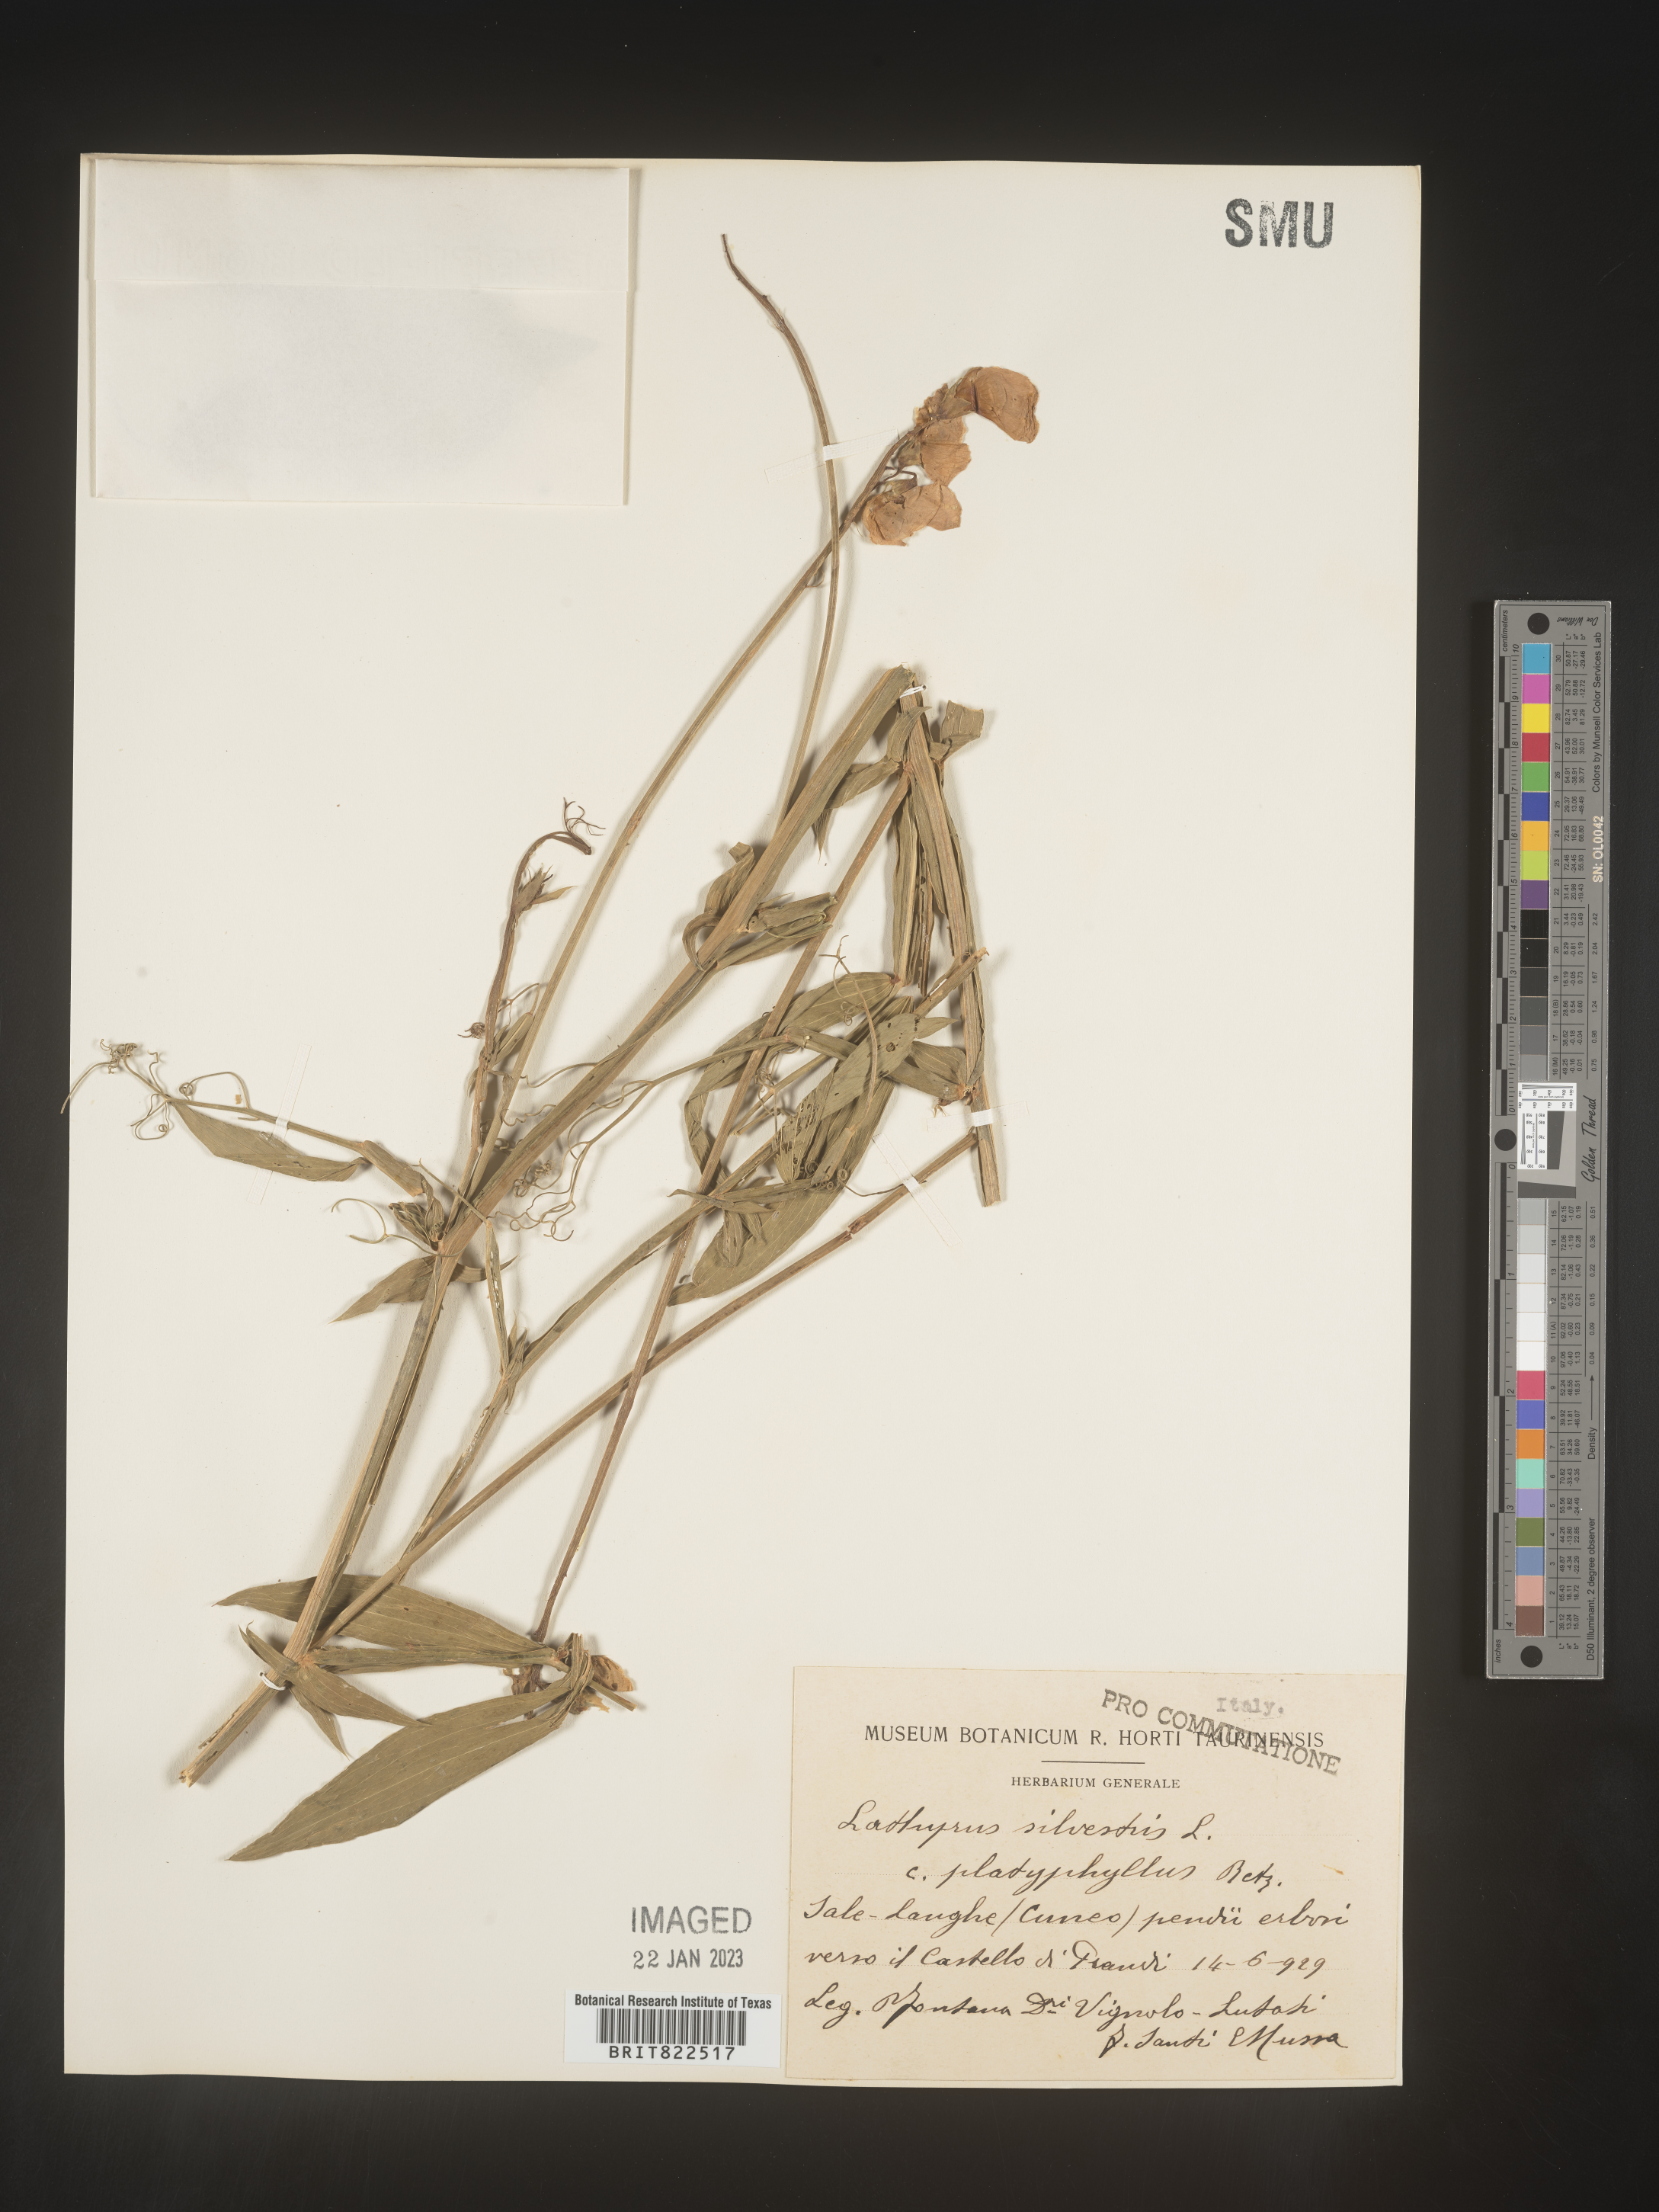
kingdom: Plantae
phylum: Tracheophyta
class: Magnoliopsida
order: Fabales
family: Fabaceae
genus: Lathyrus
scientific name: Lathyrus
